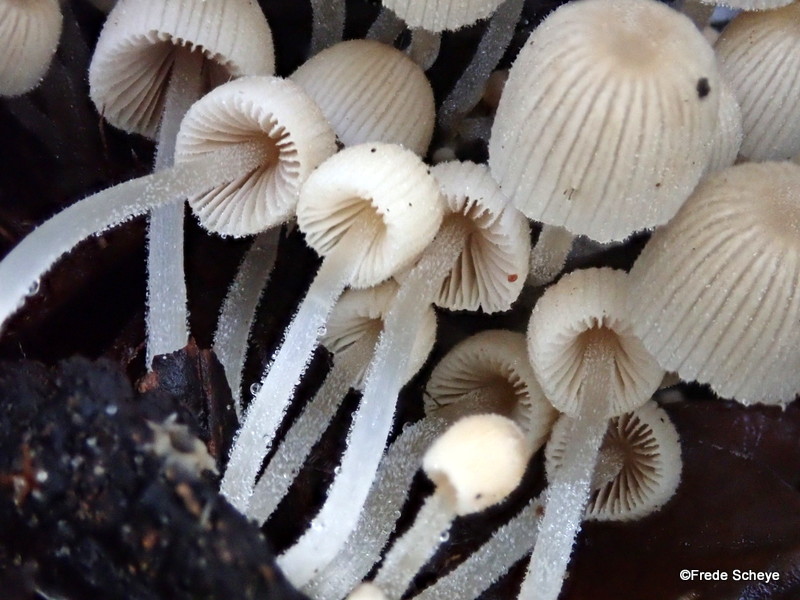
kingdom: Fungi
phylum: Basidiomycota
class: Agaricomycetes
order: Agaricales
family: Psathyrellaceae
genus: Coprinellus
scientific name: Coprinellus disseminatus
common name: bredsået blækhat
